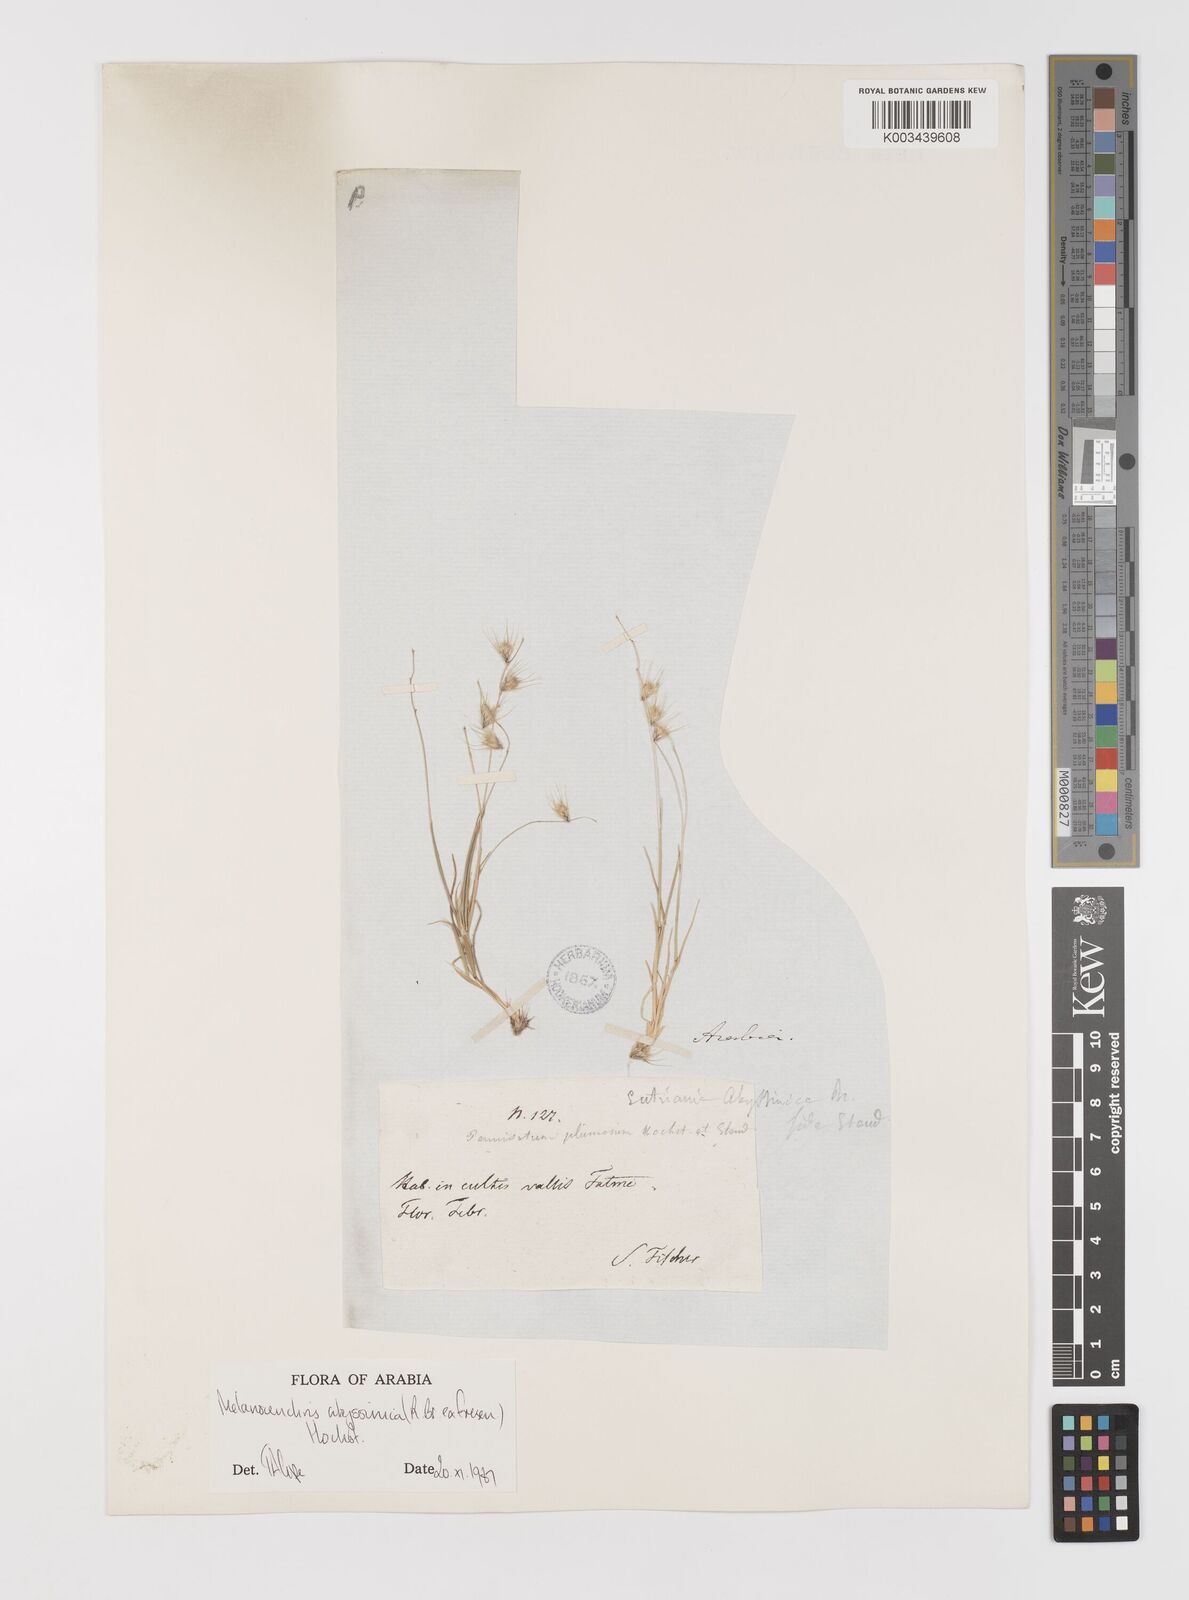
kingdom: Plantae
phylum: Tracheophyta
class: Liliopsida
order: Poales
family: Poaceae
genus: Melanocenchris
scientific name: Melanocenchris abyssinica
